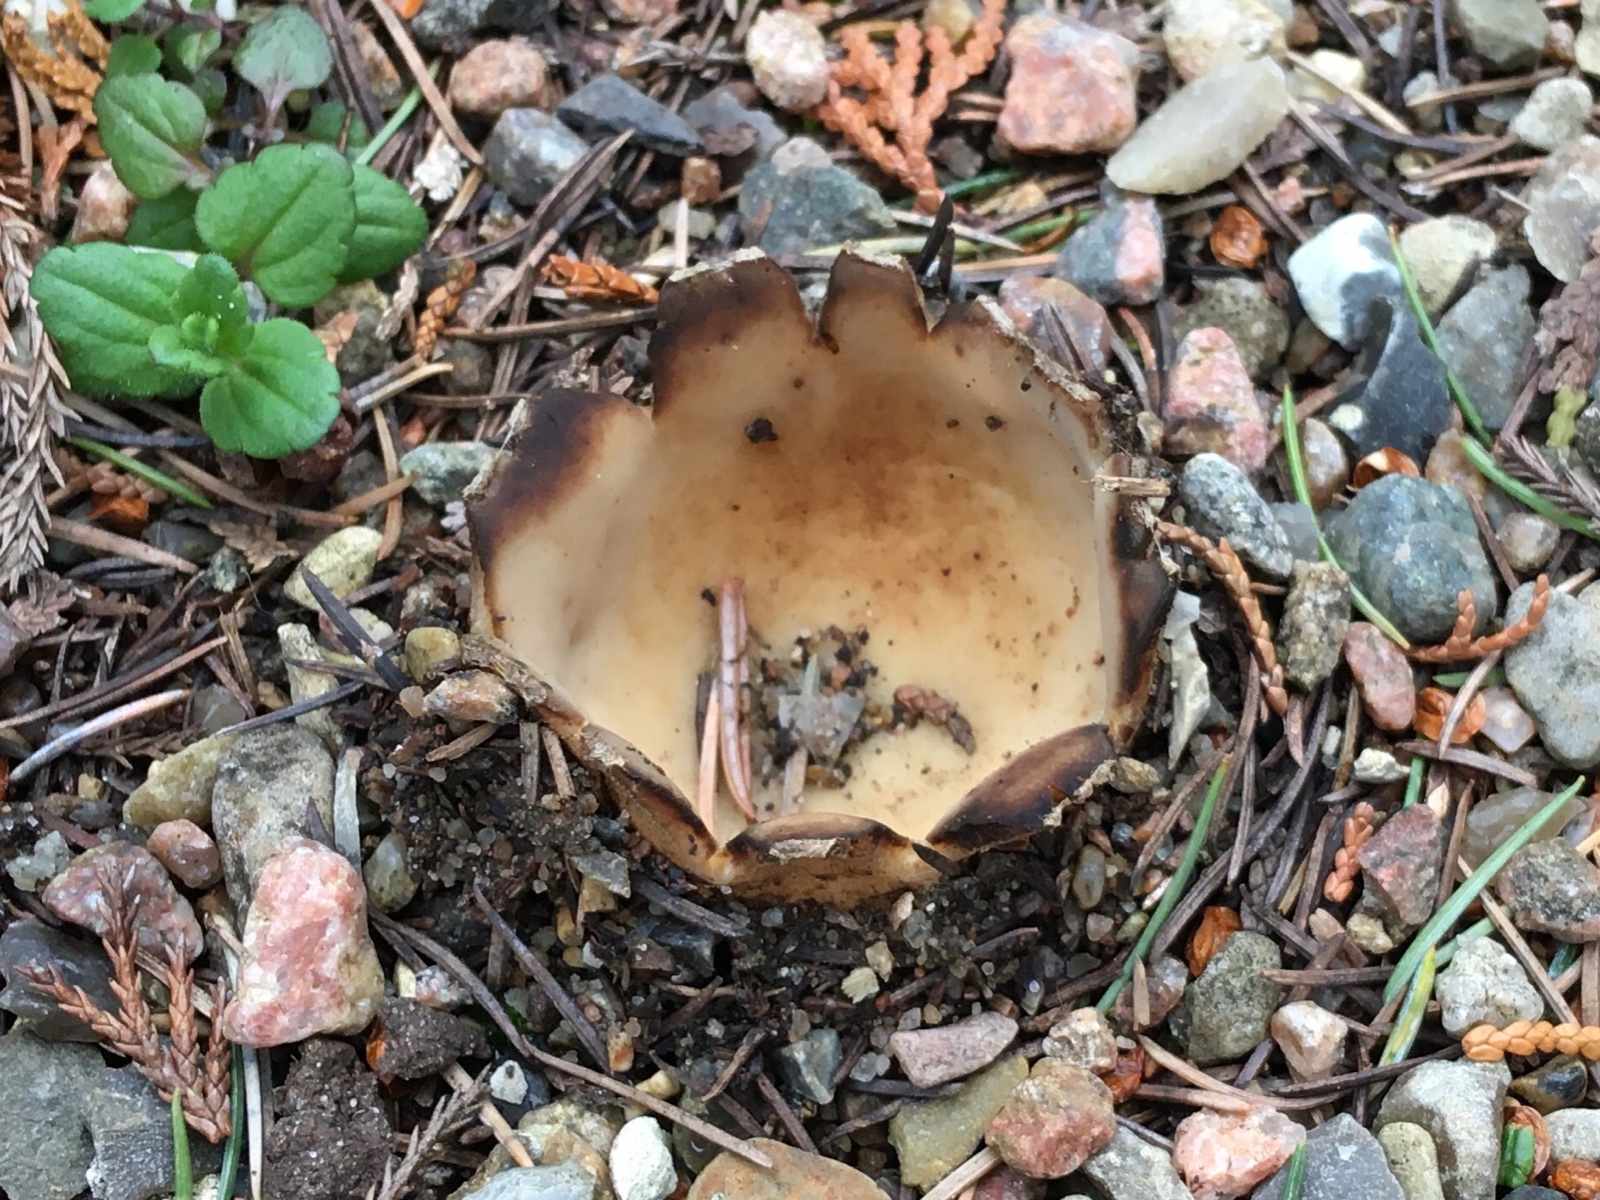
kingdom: Fungi
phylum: Ascomycota
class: Pezizomycetes
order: Pezizales
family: Pyronemataceae
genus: Geopora
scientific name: Geopora sumneriana
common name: vår-jordbæger
